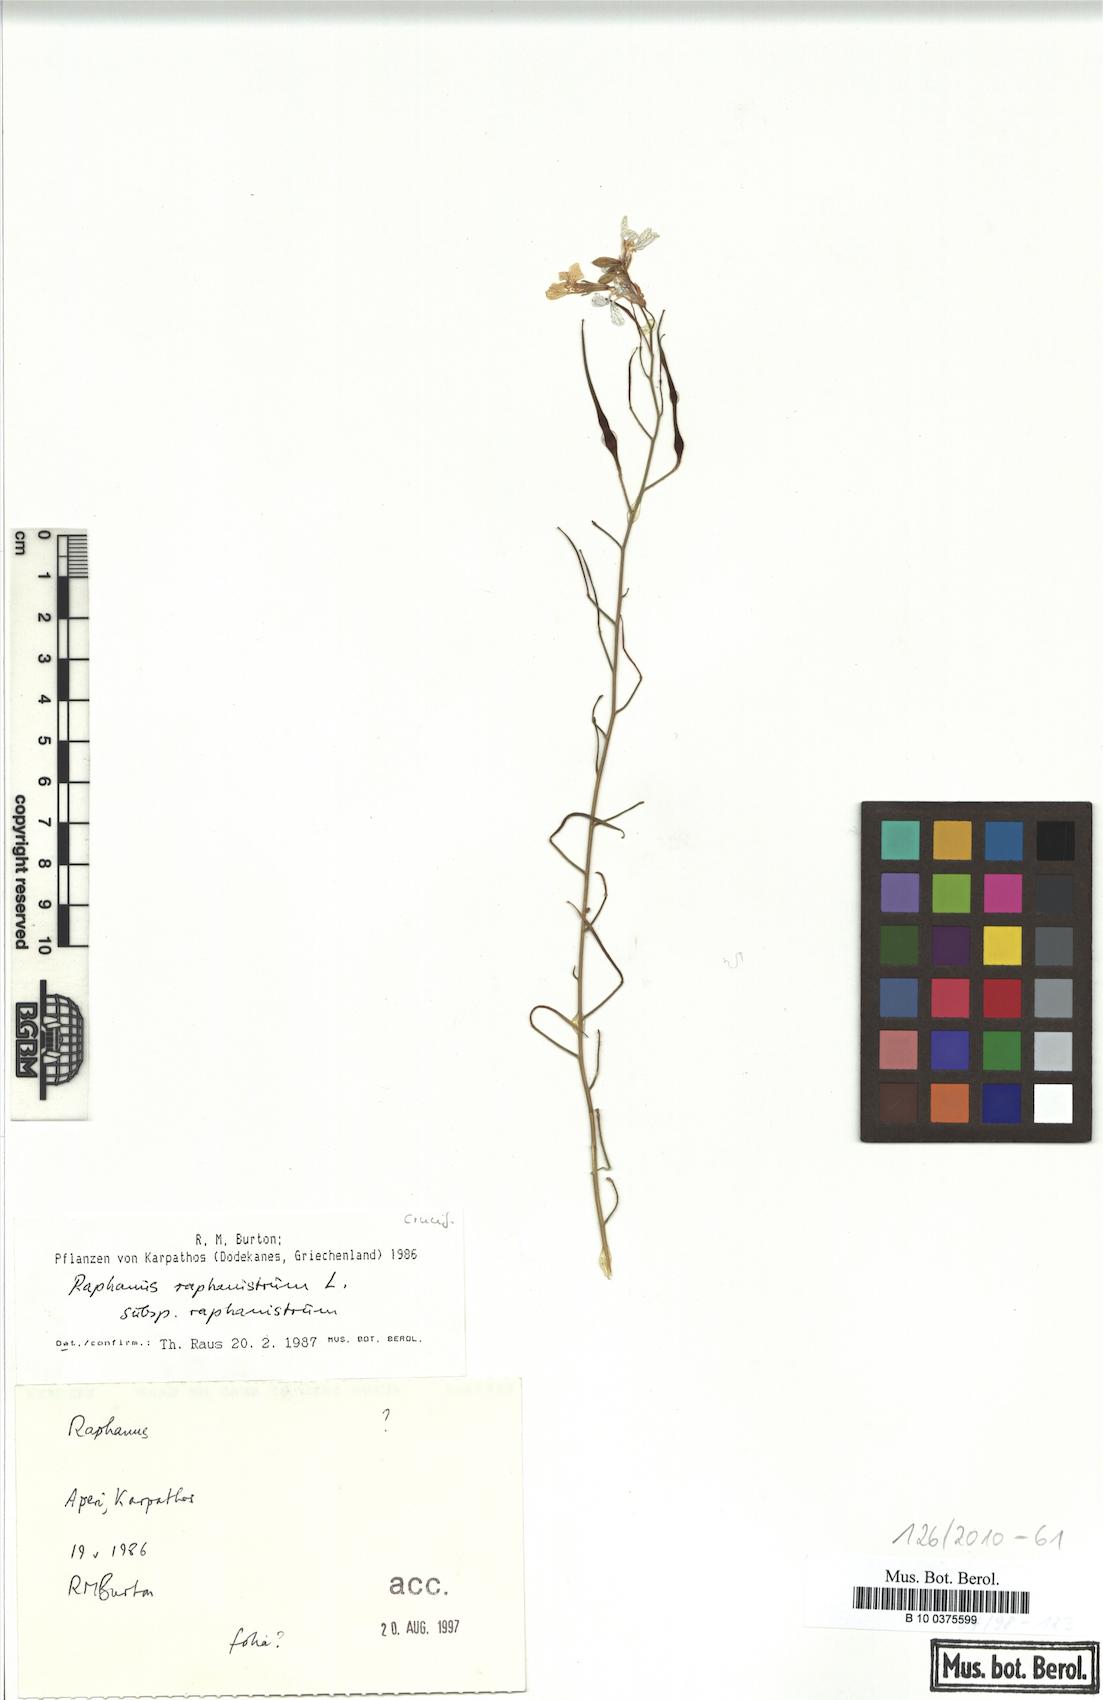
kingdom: Plantae
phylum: Tracheophyta
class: Magnoliopsida
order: Brassicales
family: Brassicaceae
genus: Raphanus
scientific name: Raphanus raphanistrum
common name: Wild radish
